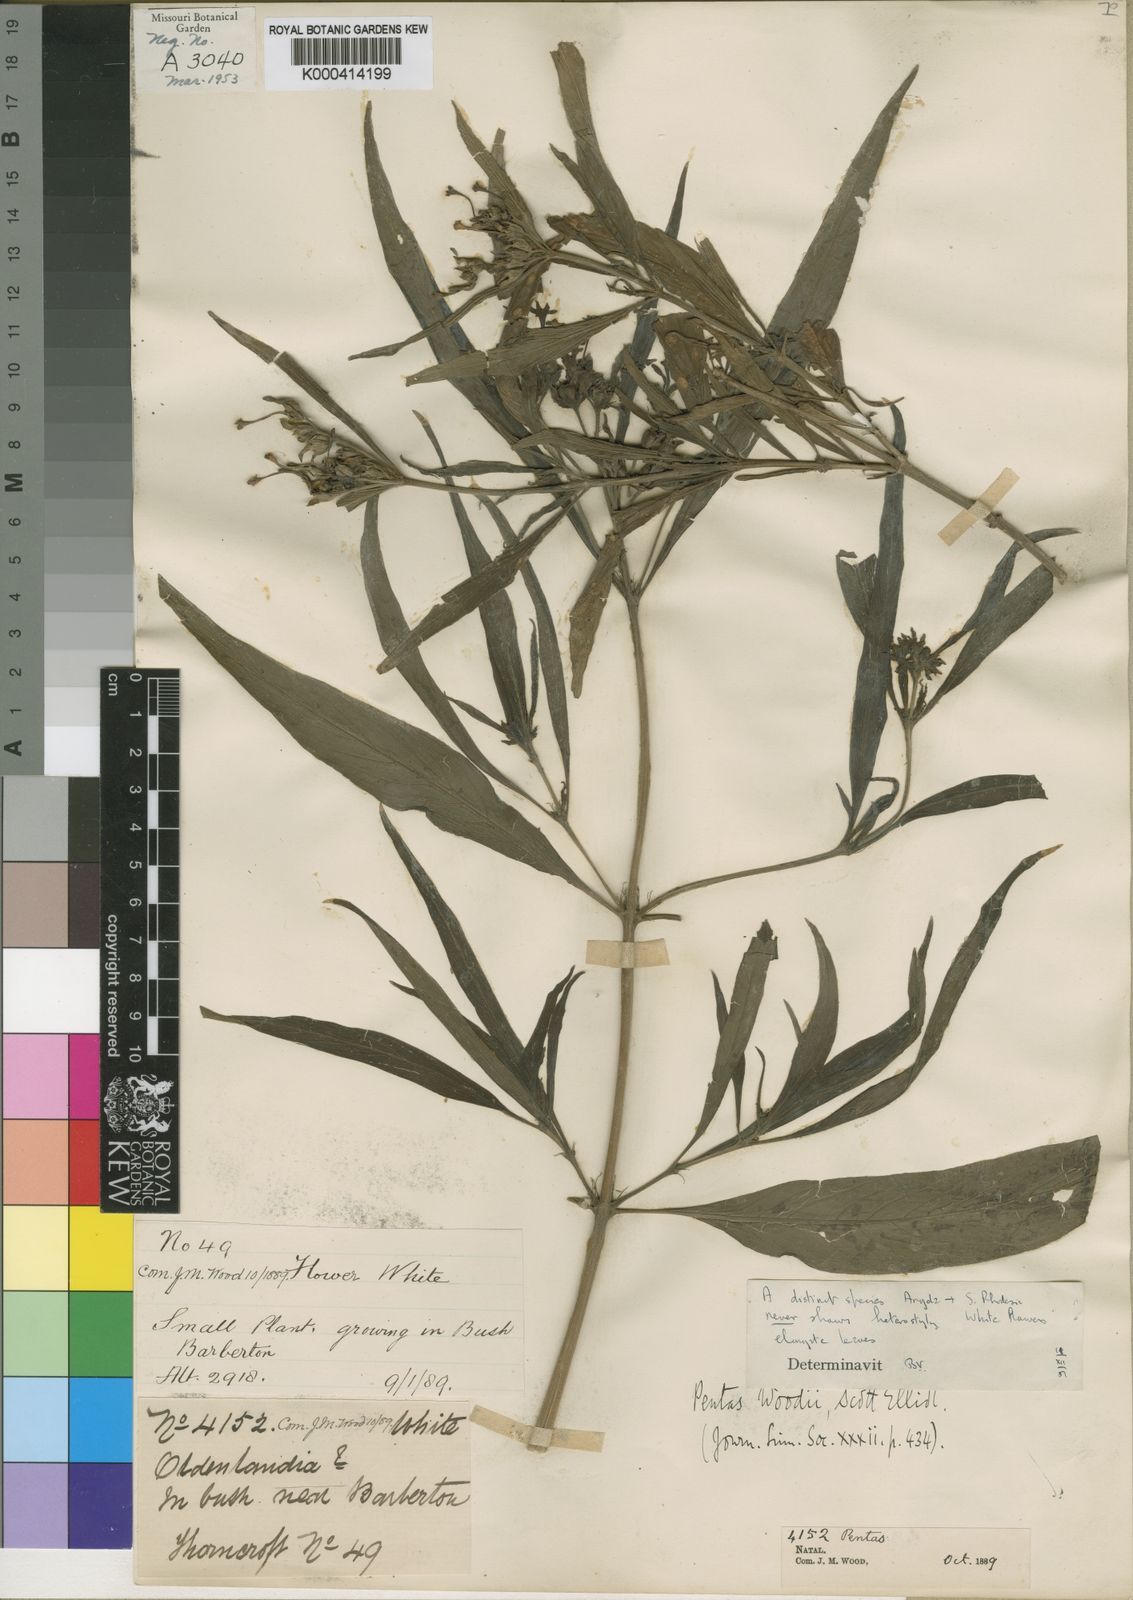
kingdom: Plantae
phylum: Tracheophyta
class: Magnoliopsida
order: Gentianales
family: Rubiaceae
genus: Pentas
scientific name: Pentas angustifolia
